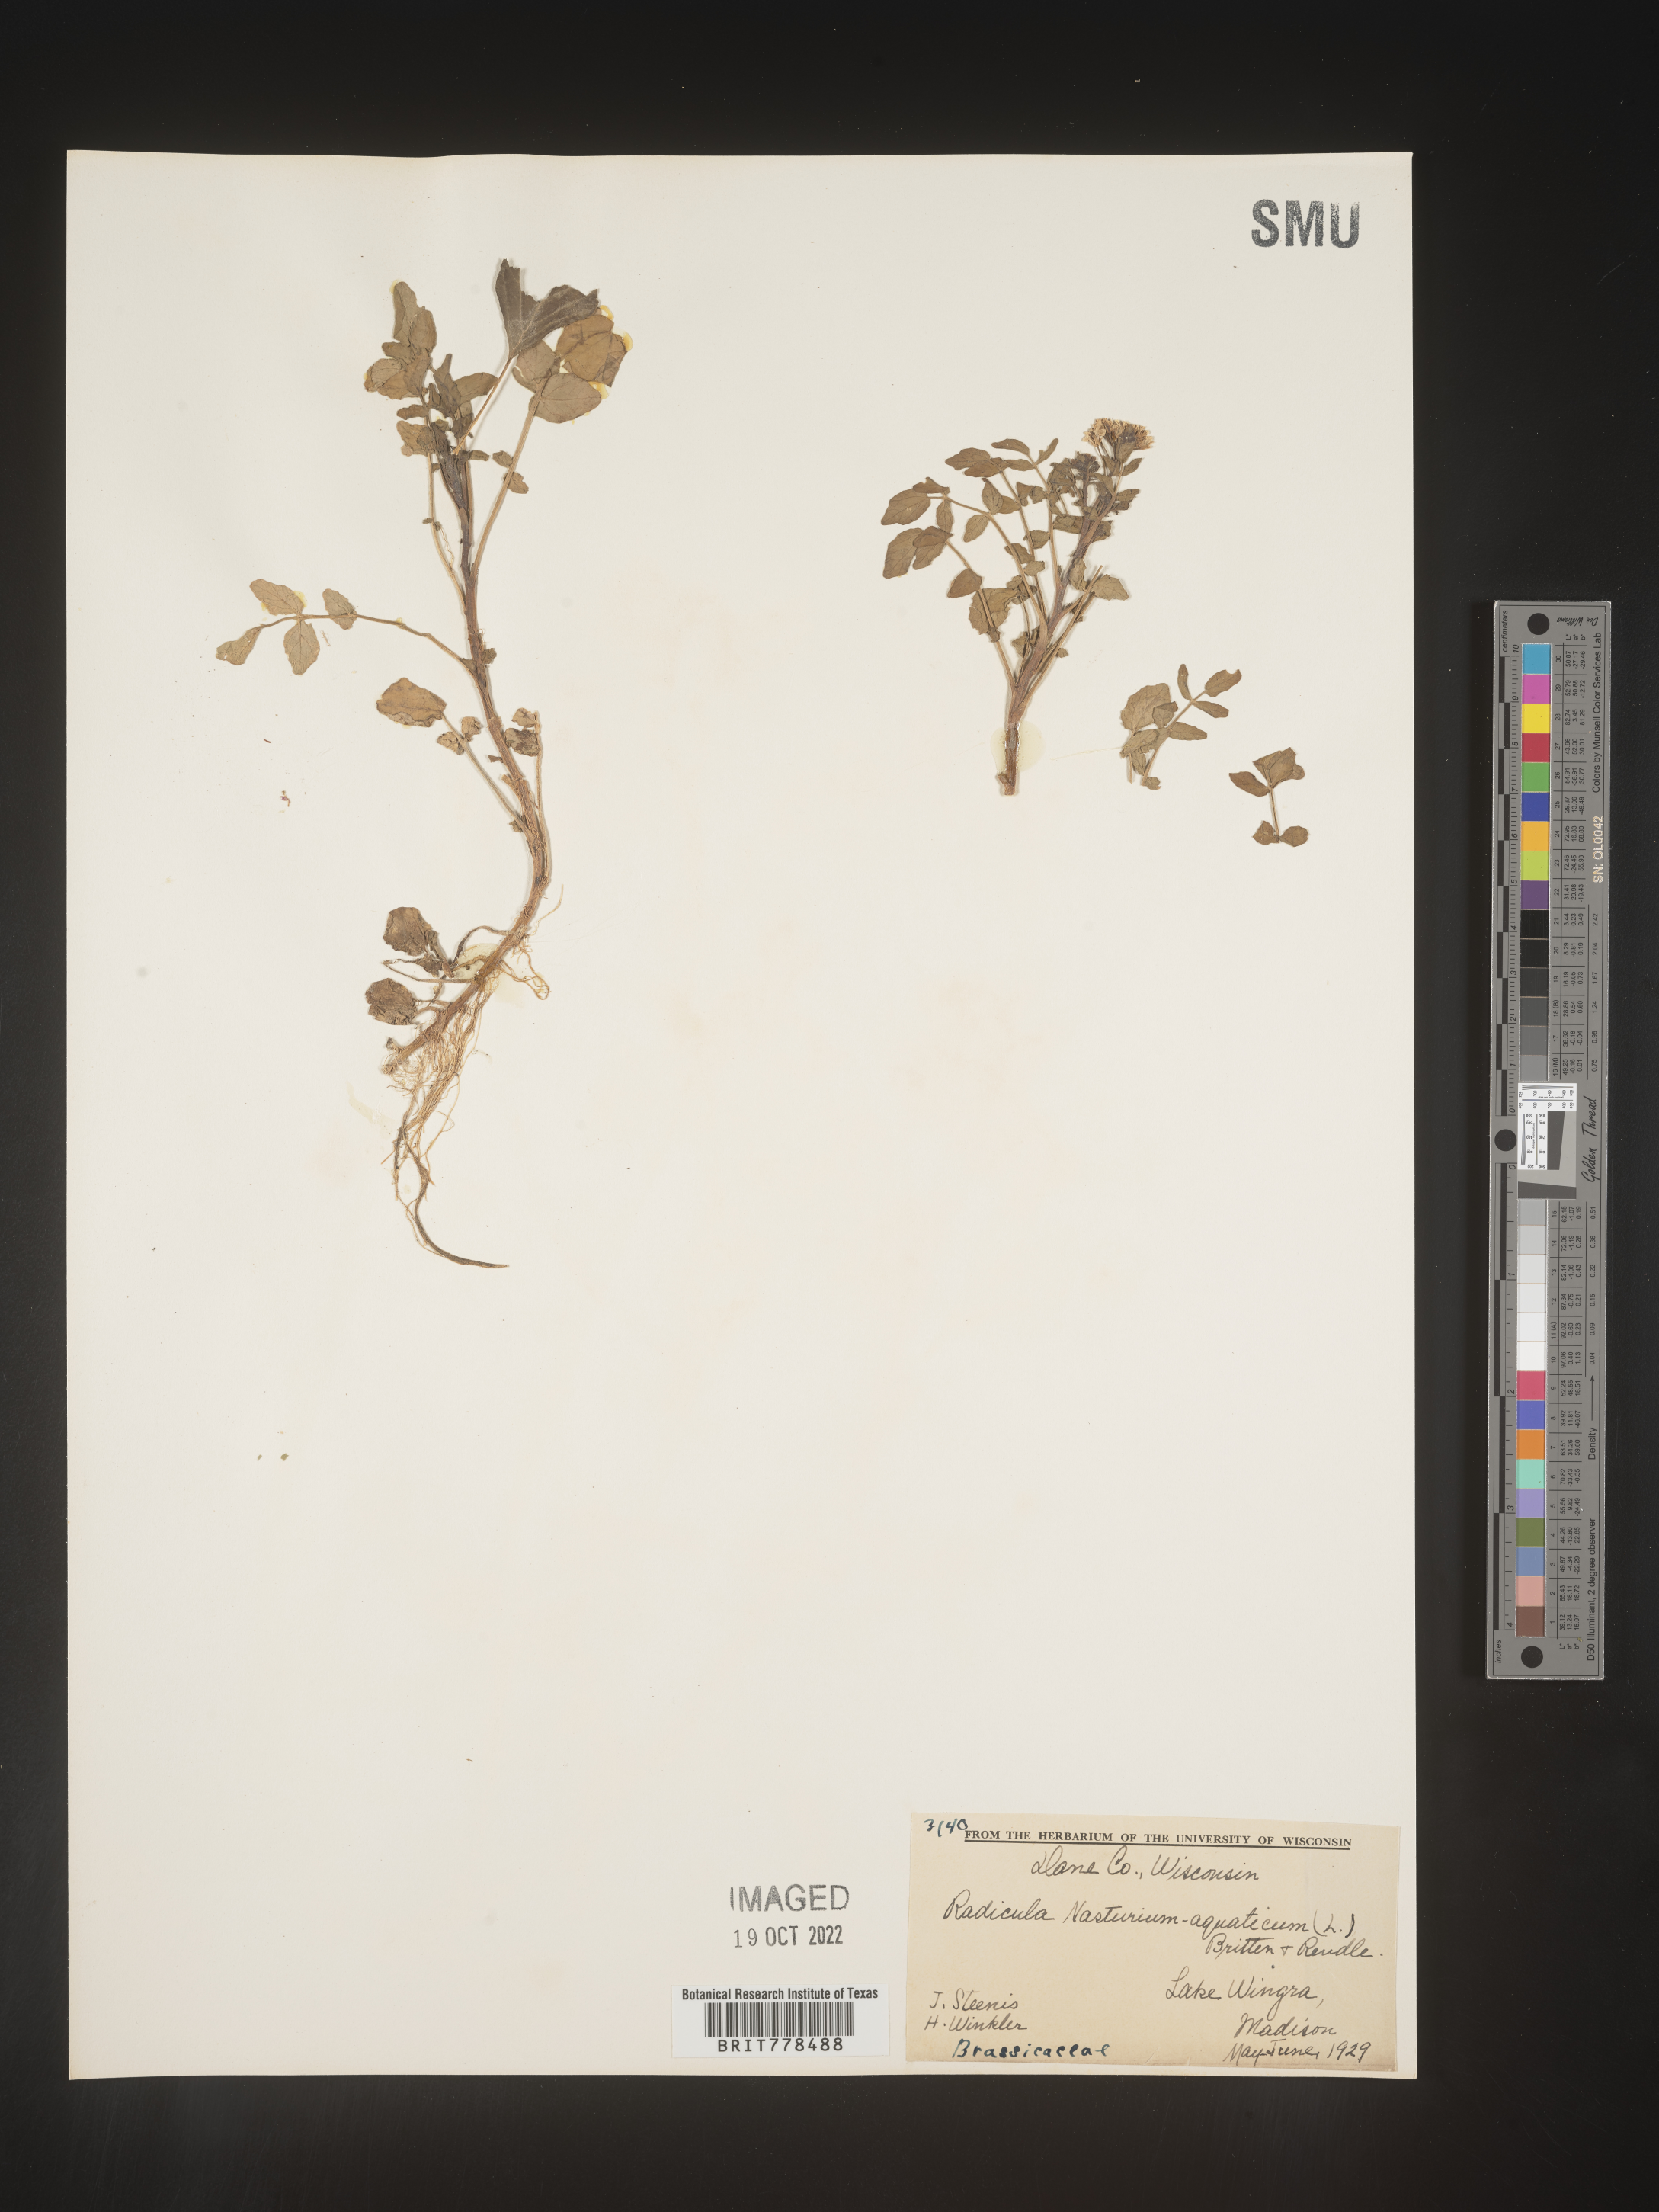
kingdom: Plantae
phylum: Tracheophyta
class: Magnoliopsida
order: Brassicales
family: Brassicaceae
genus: Nasturtium
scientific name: Nasturtium officinale
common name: Watercress
